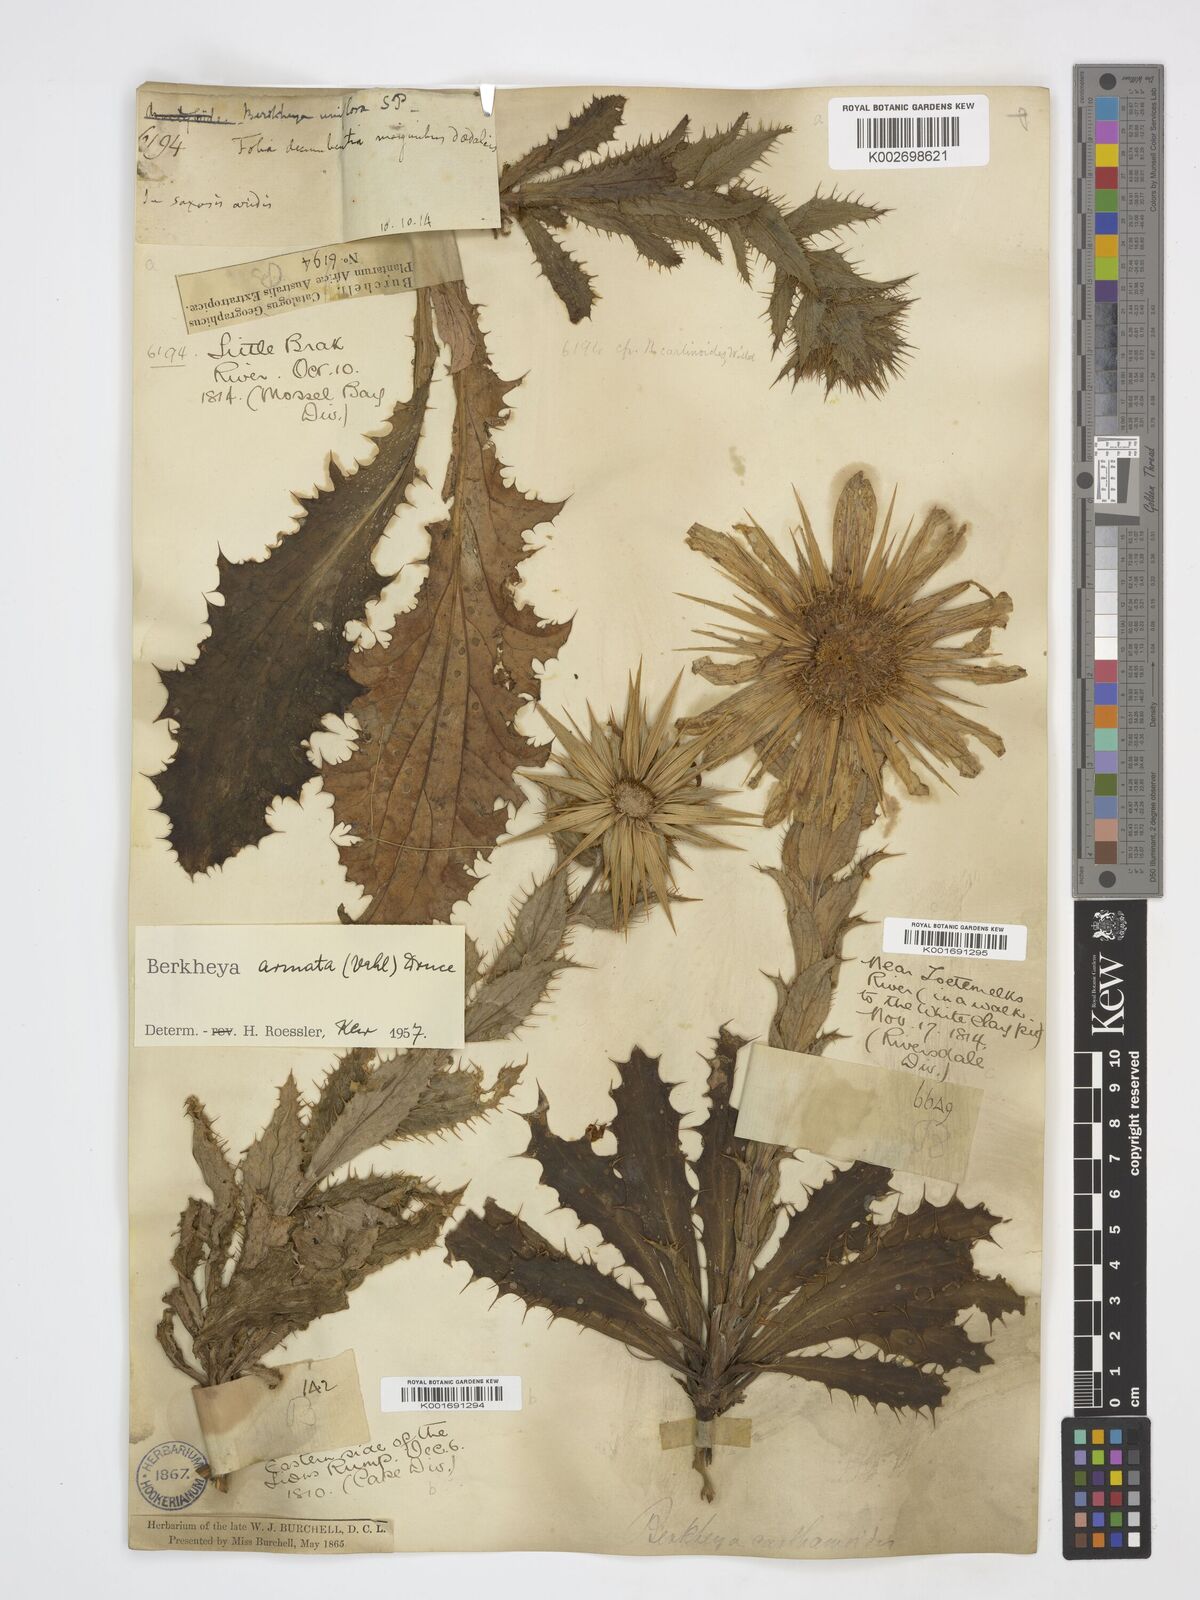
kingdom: Plantae
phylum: Tracheophyta
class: Magnoliopsida
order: Asterales
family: Asteraceae
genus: Berkheya
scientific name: Berkheya armata
